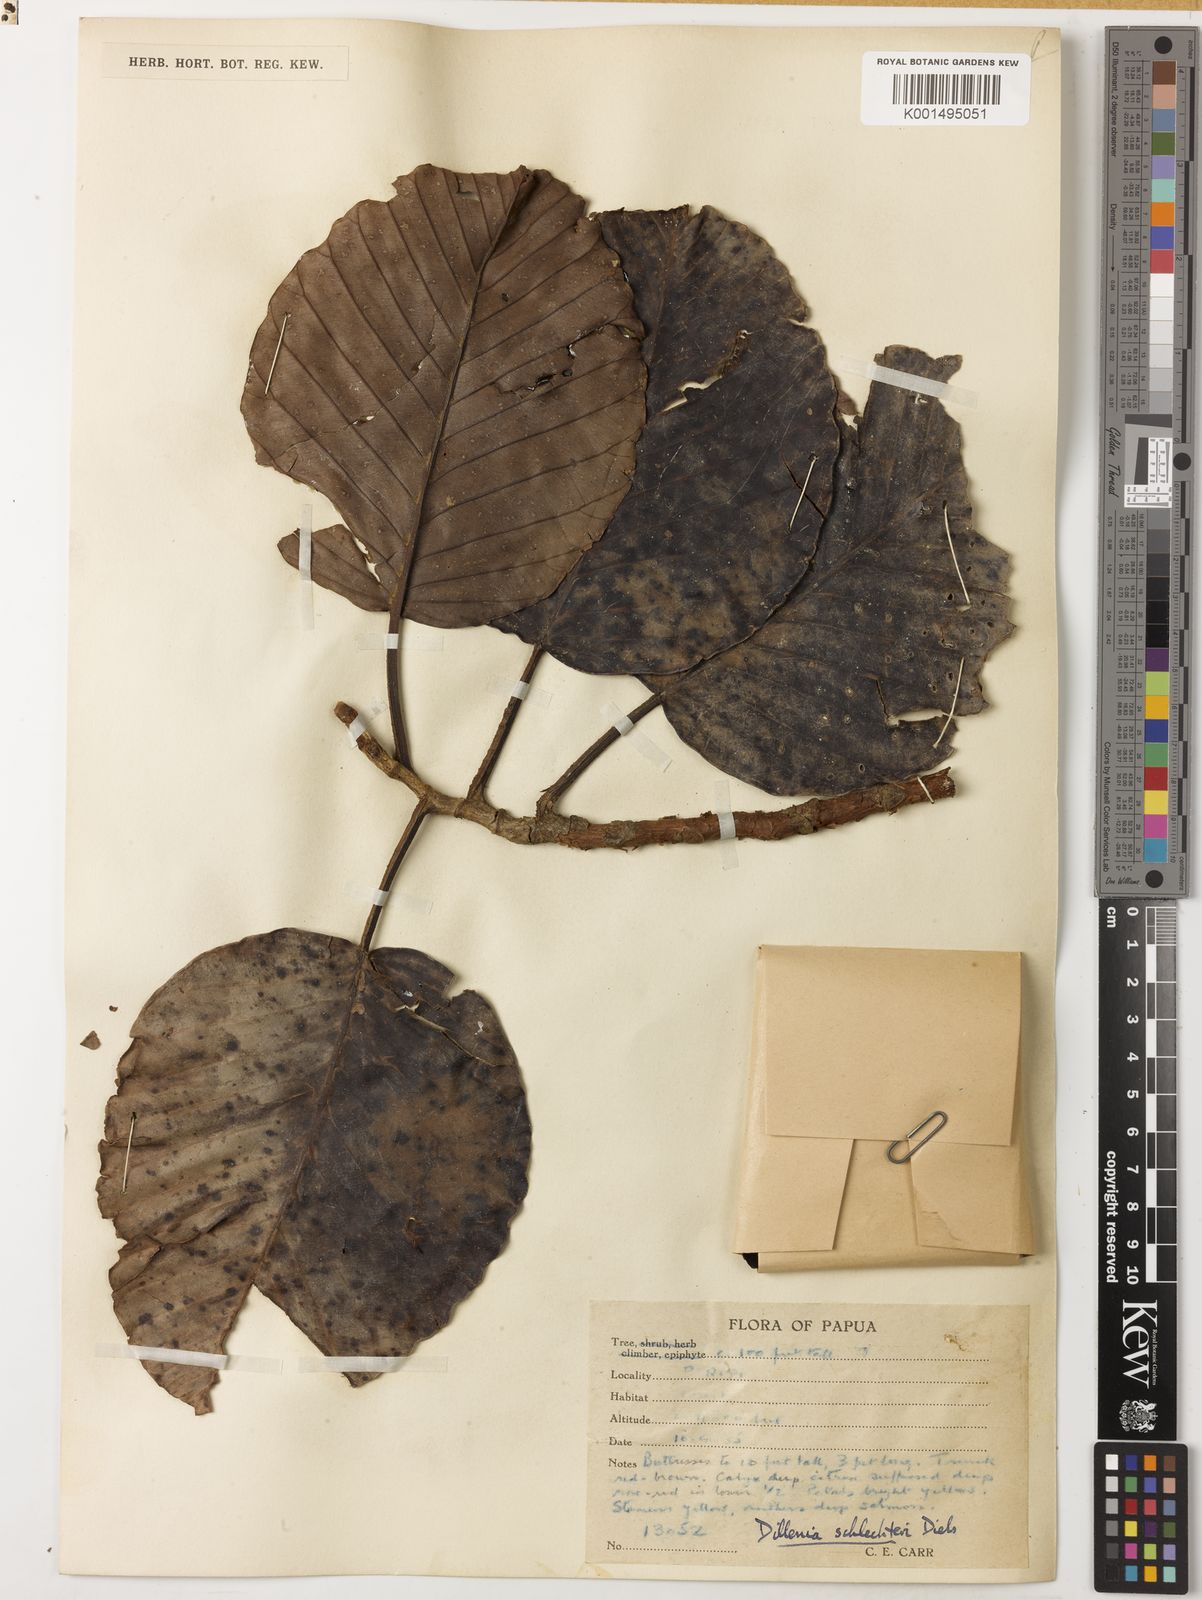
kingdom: Plantae
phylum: Tracheophyta
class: Magnoliopsida
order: Dilleniales
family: Dilleniaceae
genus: Dillenia
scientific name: Dillenia schlechteri
